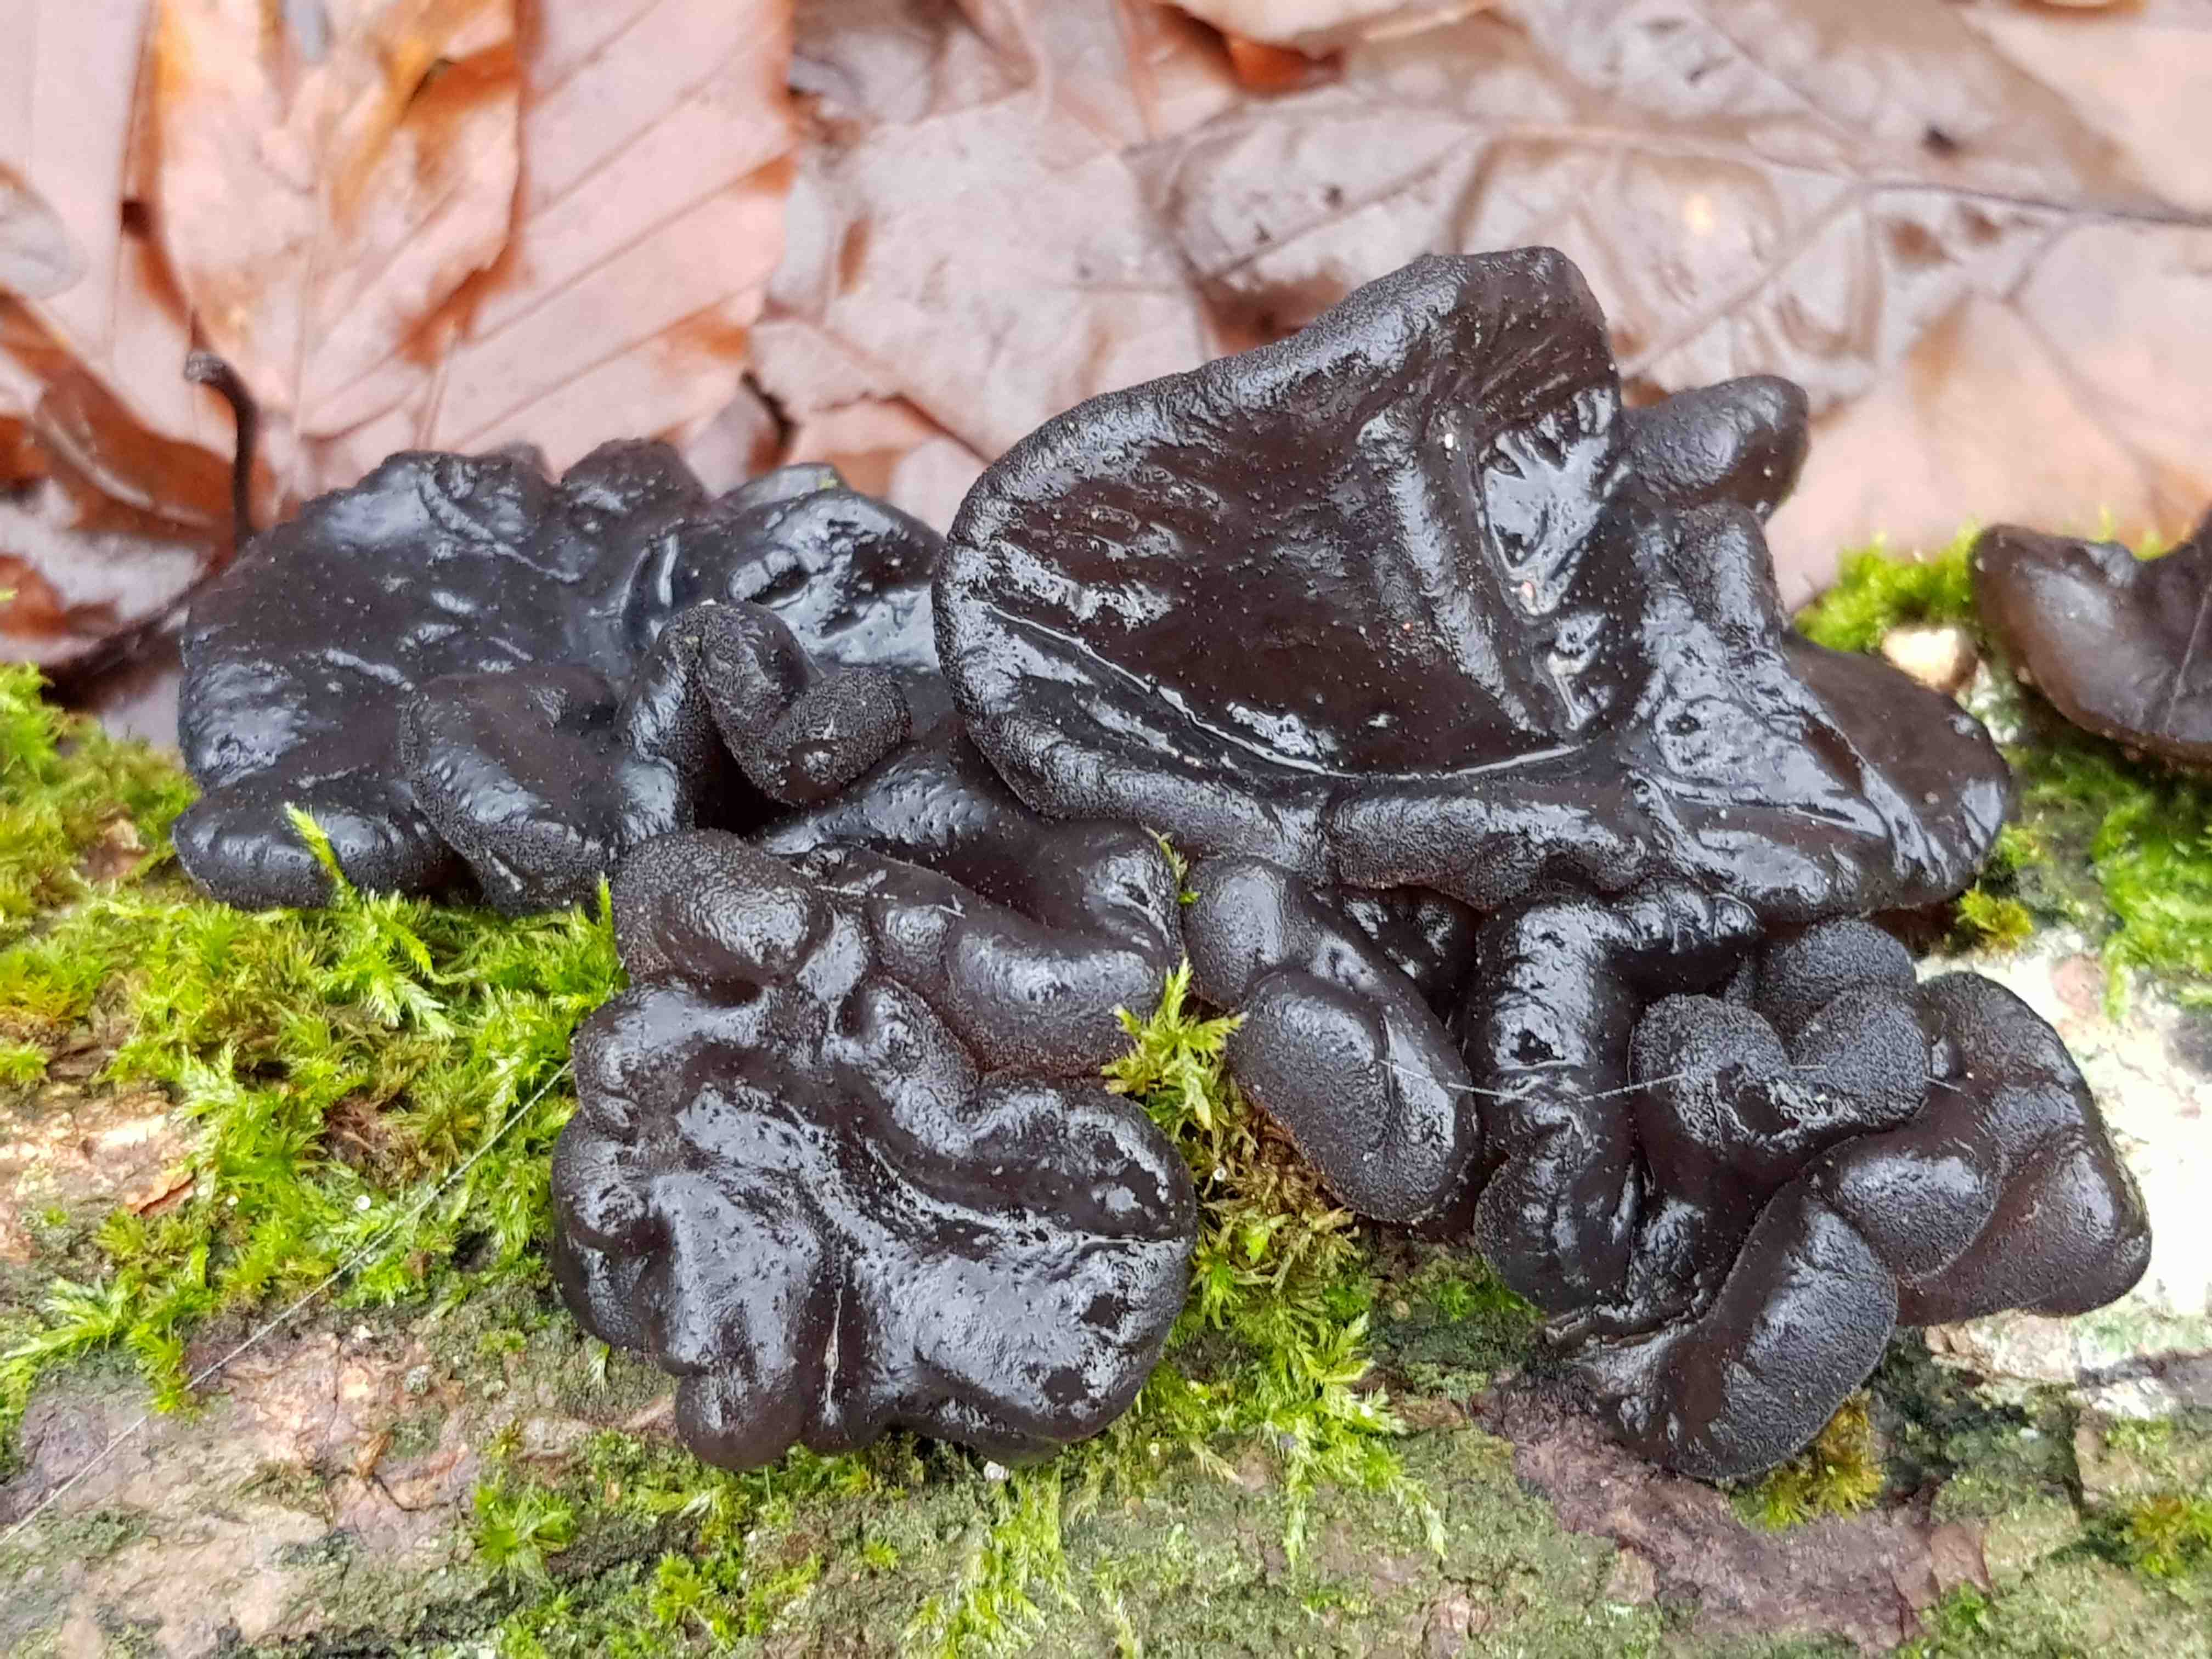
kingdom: Fungi
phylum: Basidiomycota
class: Agaricomycetes
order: Auriculariales
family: Auriculariaceae
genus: Exidia
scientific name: Exidia glandulosa
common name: ege-bævretop
